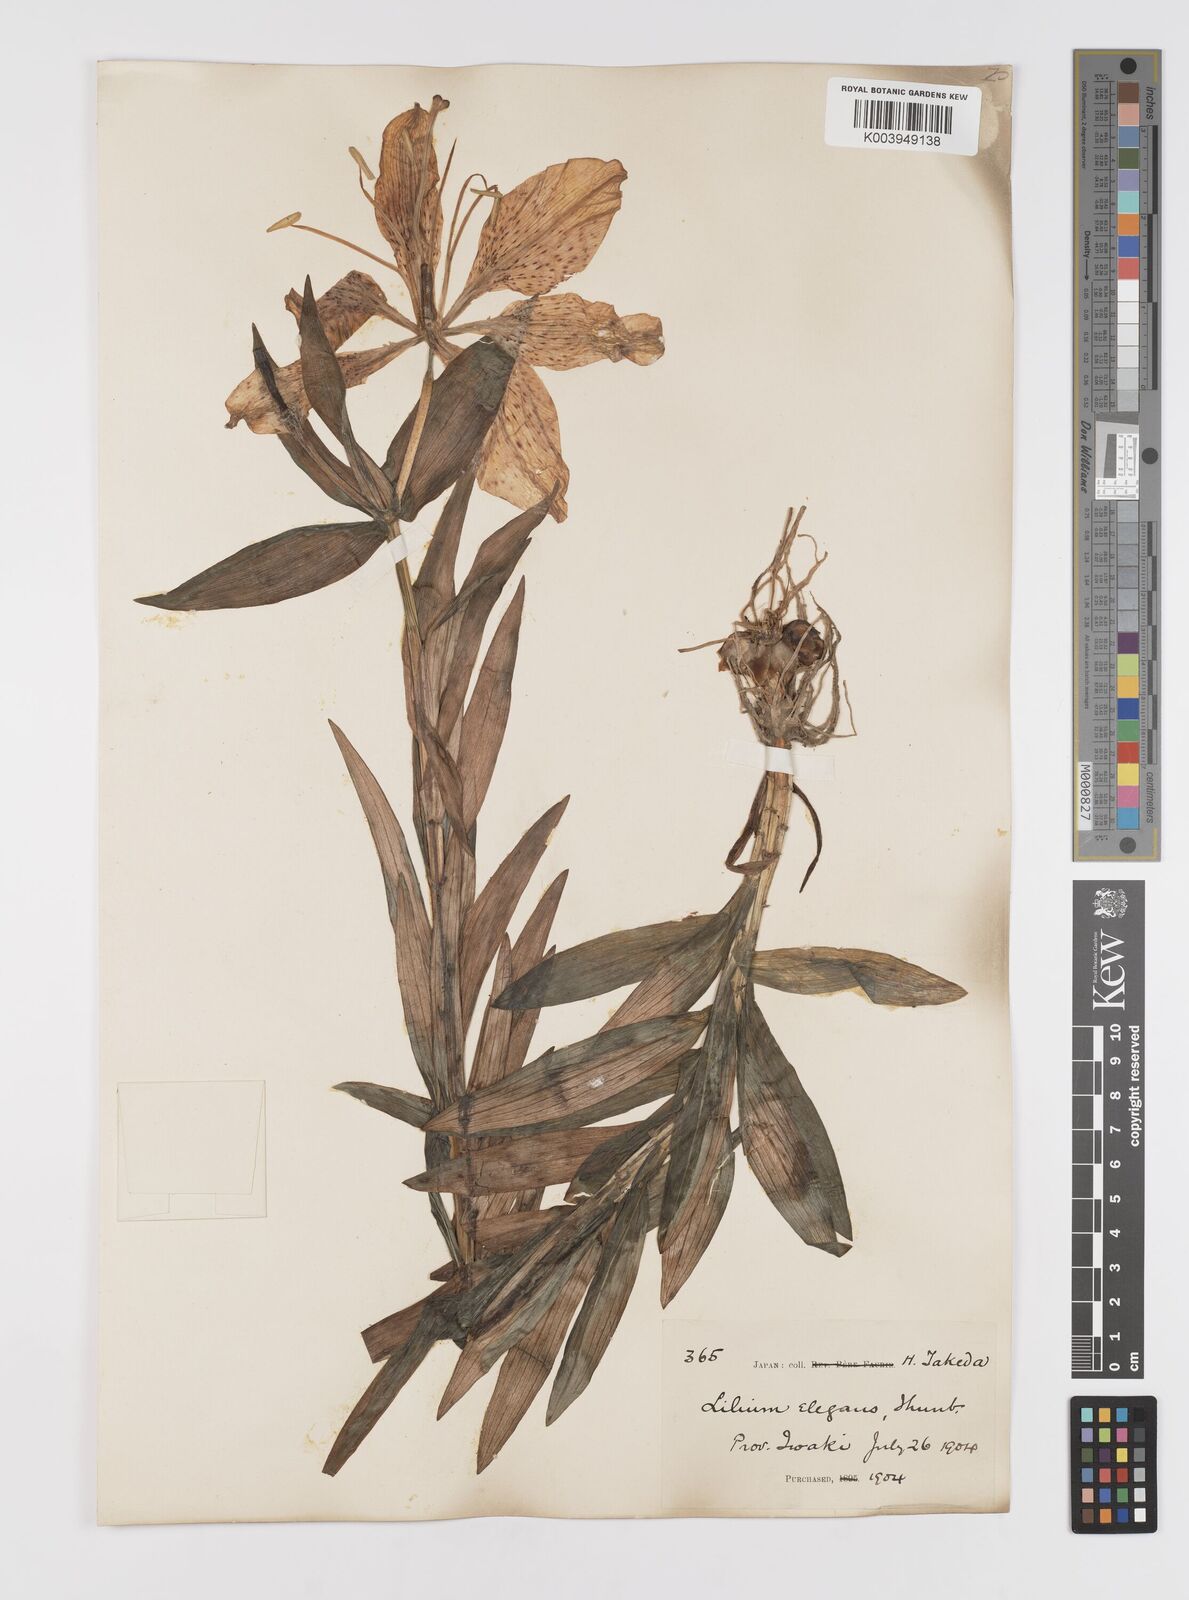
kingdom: Plantae
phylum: Tracheophyta
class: Liliopsida
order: Liliales
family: Liliaceae
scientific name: Liliaceae
